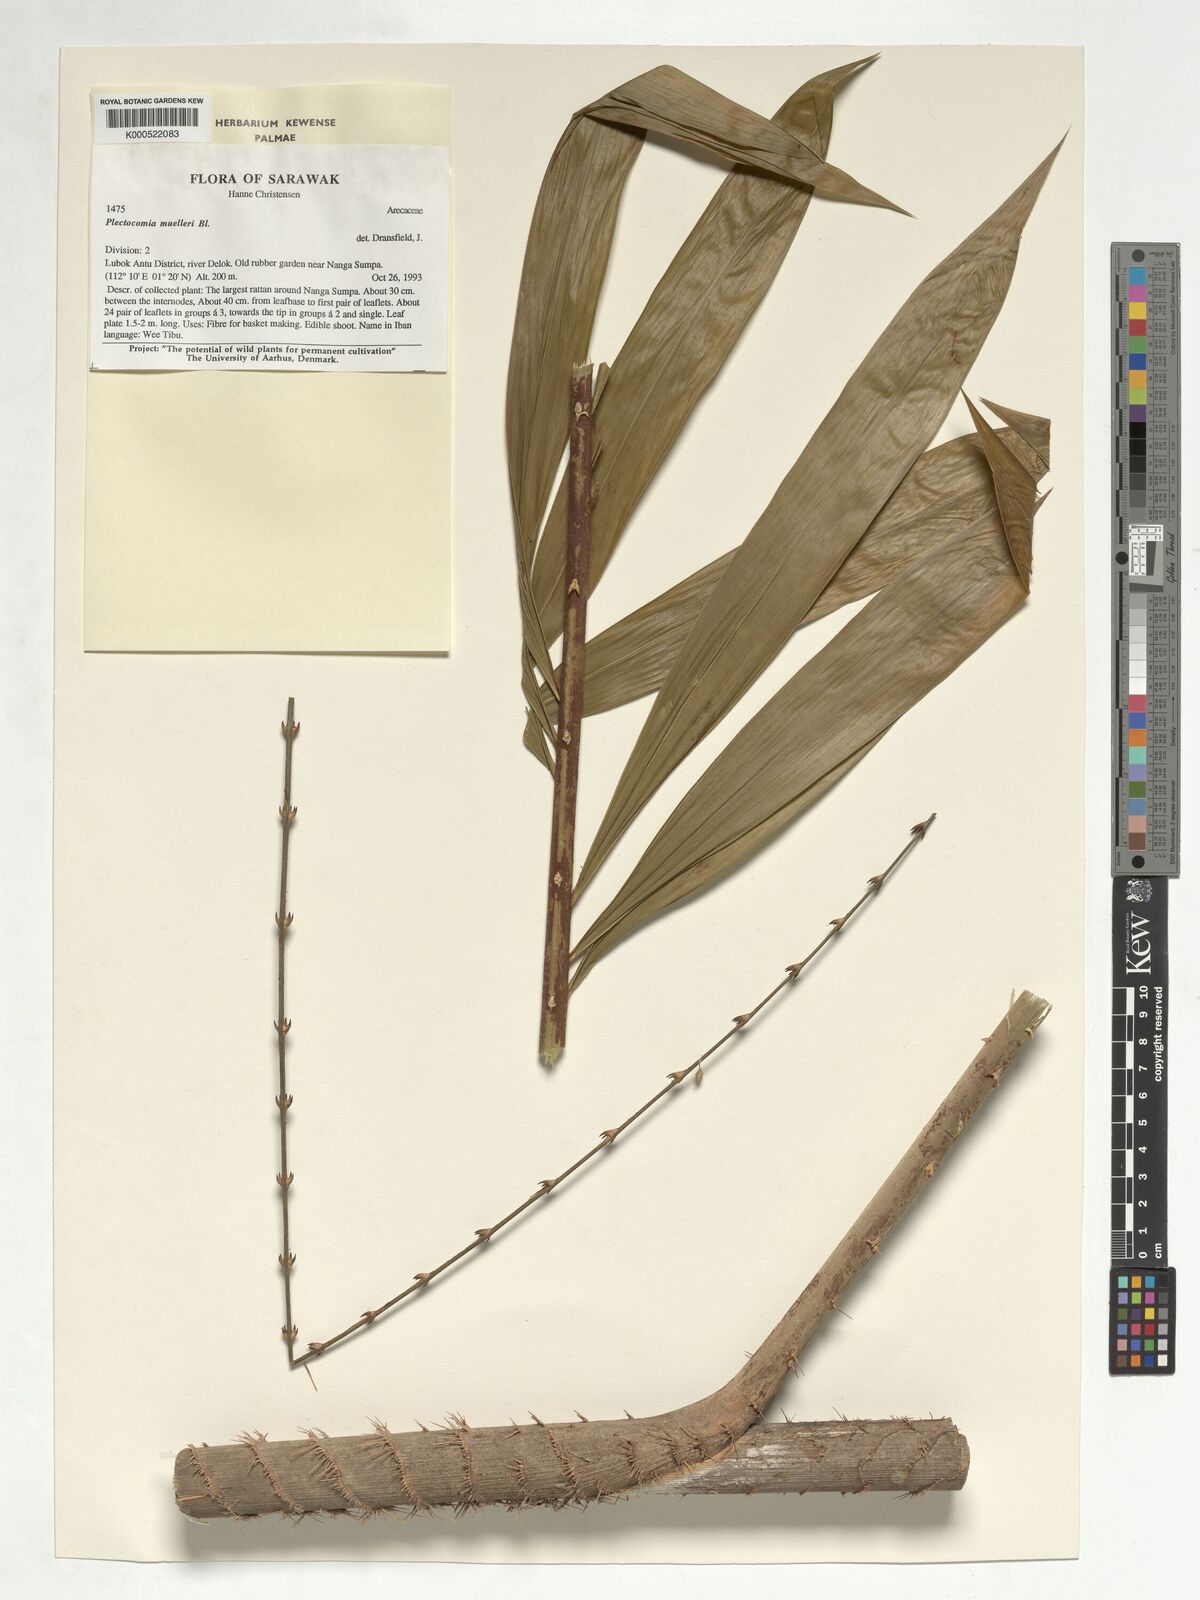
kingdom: Plantae
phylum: Tracheophyta
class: Liliopsida
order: Arecales
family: Arecaceae
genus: Plectocomia
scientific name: Plectocomia mulleri
